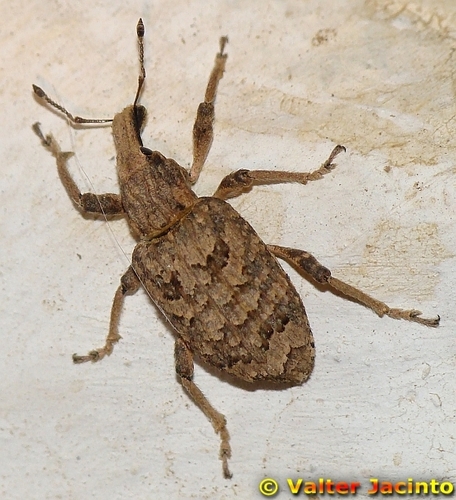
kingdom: Animalia
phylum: Arthropoda
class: Insecta
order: Coleoptera
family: Curculionidae
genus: Rhytideres
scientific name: Rhytideres plicatus
